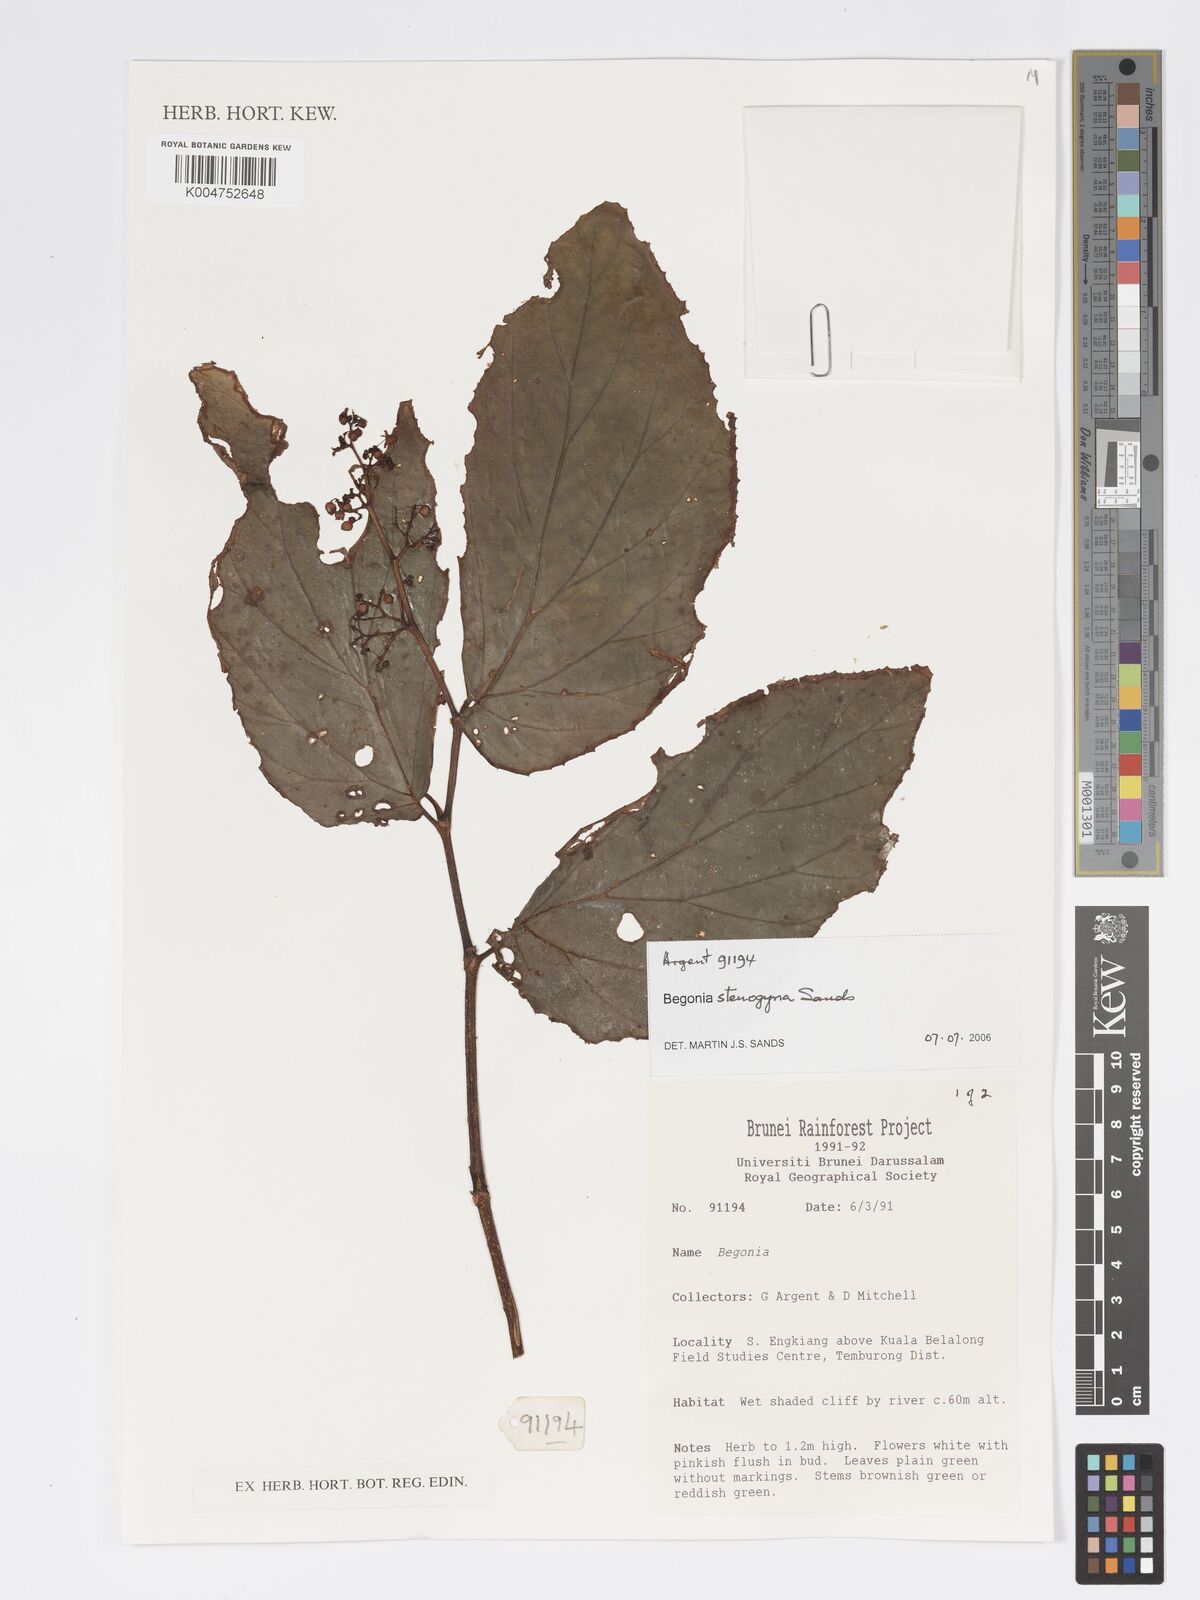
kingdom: Plantae
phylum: Tracheophyta
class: Magnoliopsida
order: Cucurbitales
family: Begoniaceae
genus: Begonia
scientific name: Begonia stenogyna
